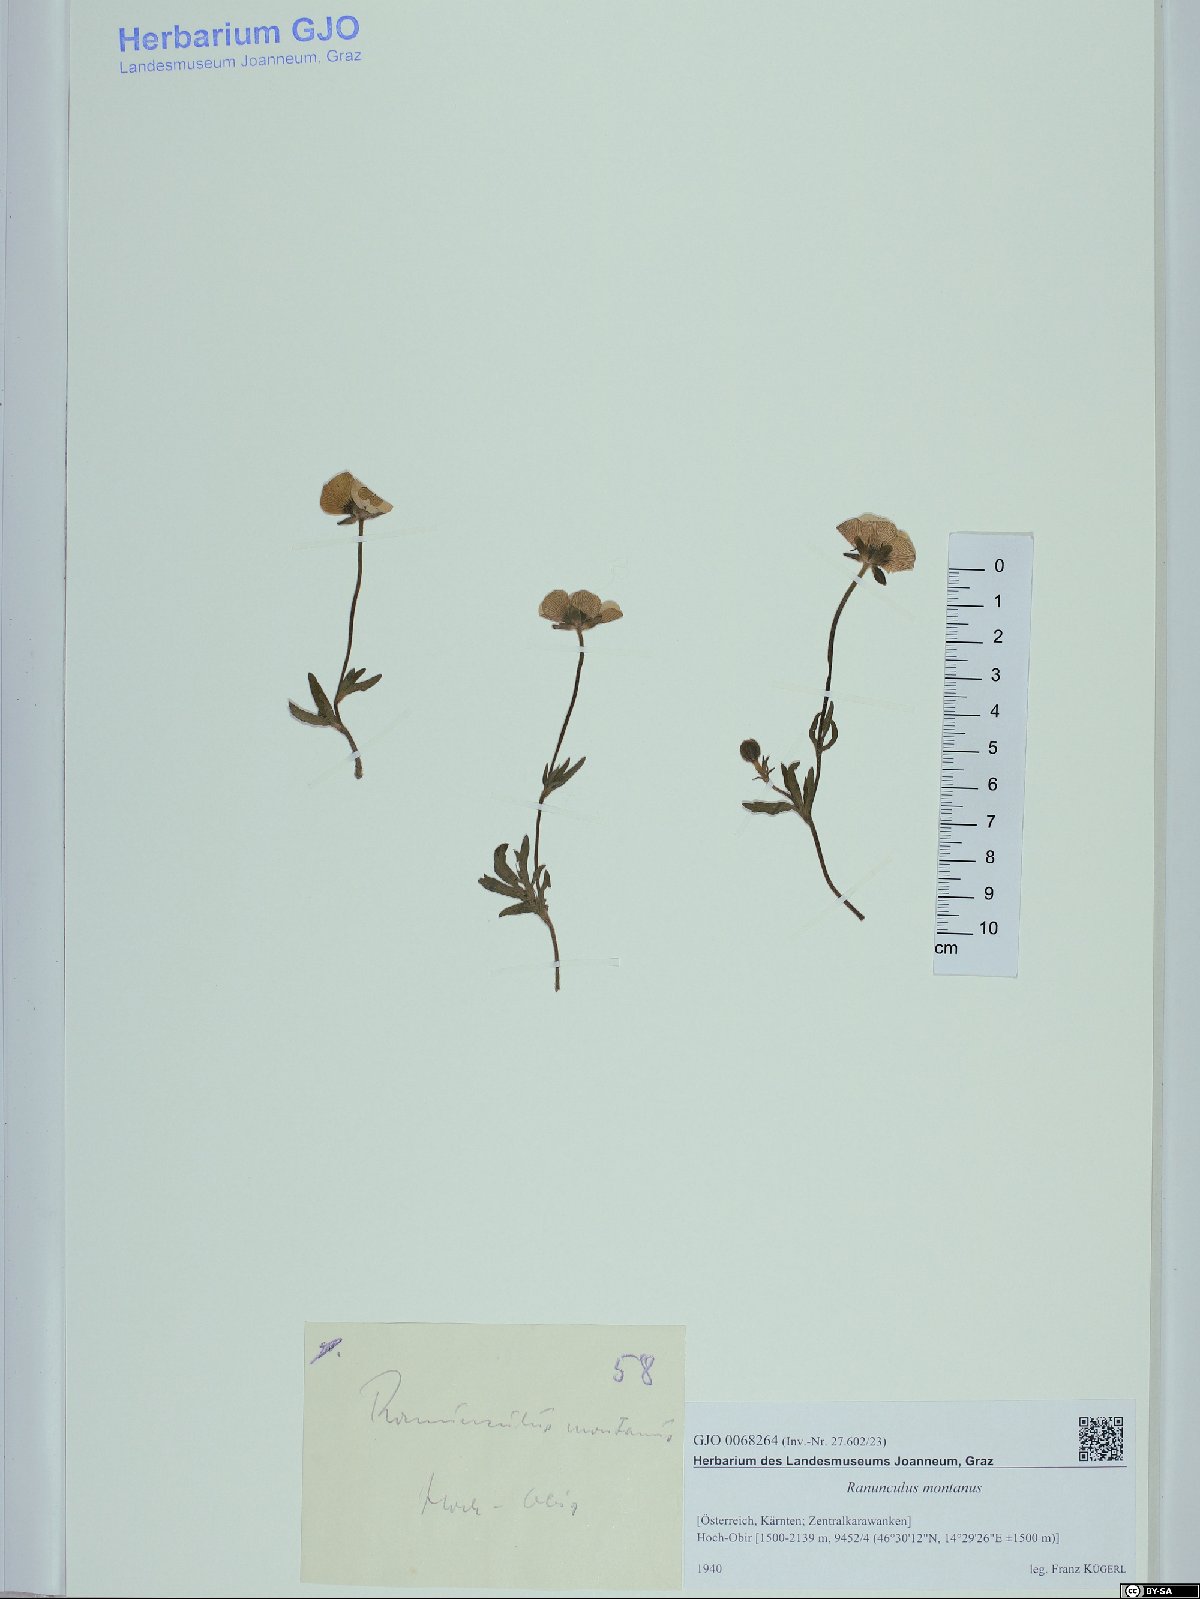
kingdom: Plantae
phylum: Tracheophyta
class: Magnoliopsida
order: Ranunculales
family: Ranunculaceae
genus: Ranunculus
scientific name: Ranunculus montanus
